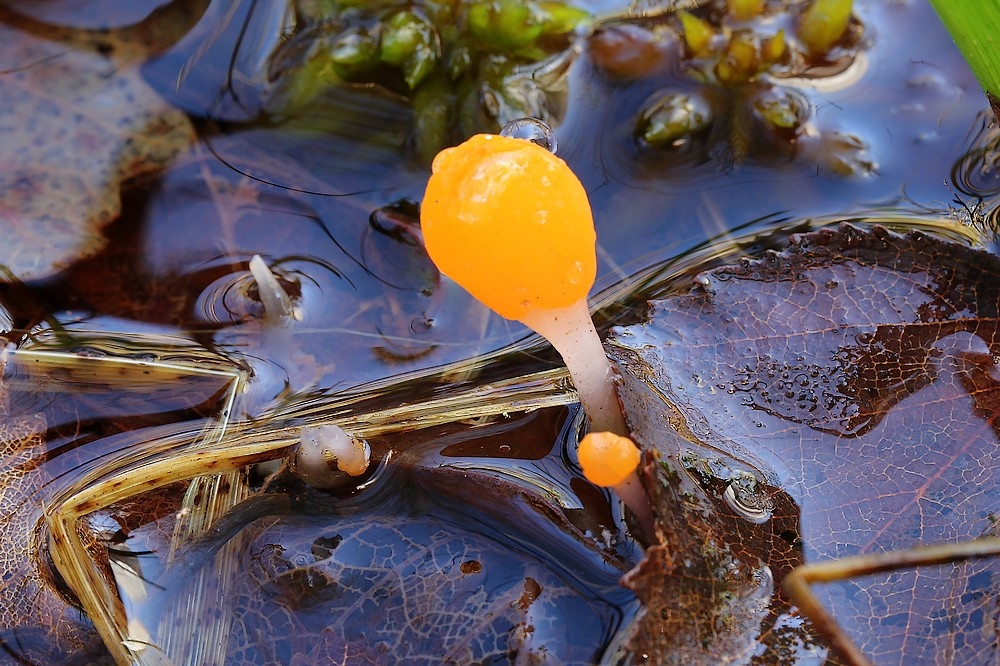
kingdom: Fungi
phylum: Ascomycota
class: Leotiomycetes
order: Helotiales
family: Cenangiaceae
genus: Mitrula
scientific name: Mitrula paludosa
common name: gul nøkketunge
